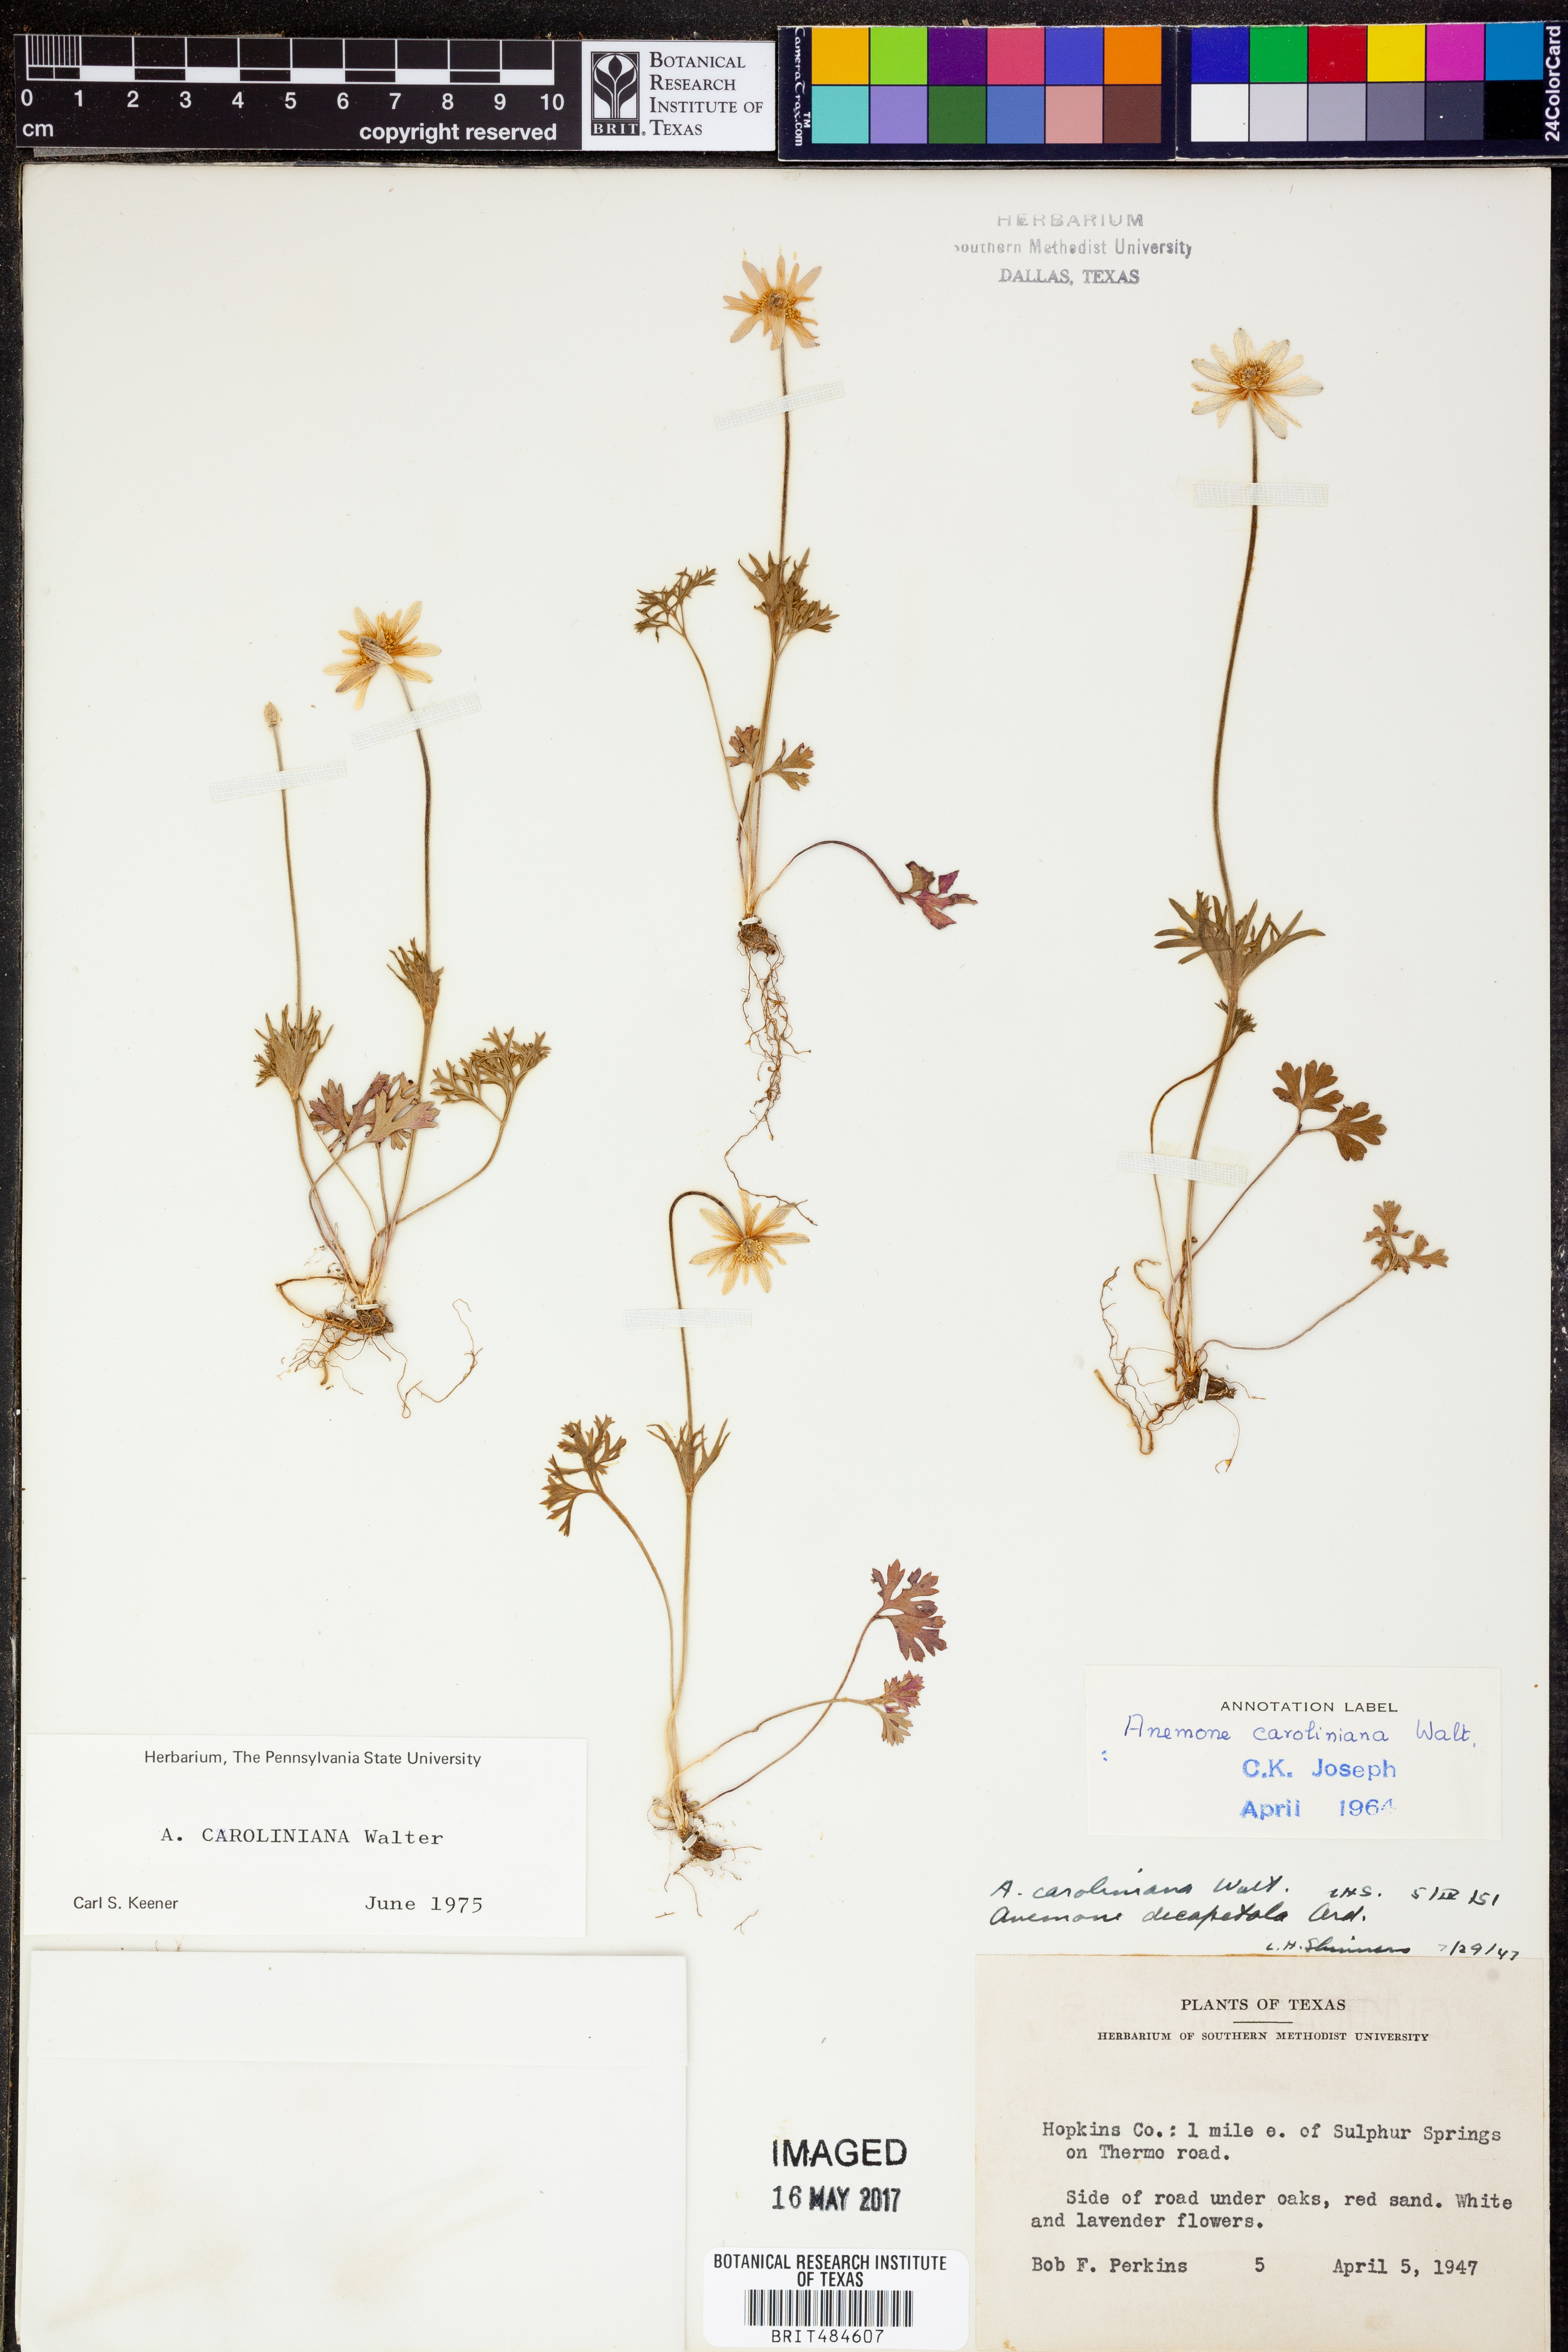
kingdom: Plantae
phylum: Tracheophyta
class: Magnoliopsida
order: Ranunculales
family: Ranunculaceae
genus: Anemone
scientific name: Anemone caroliniana
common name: Carolina anemone
